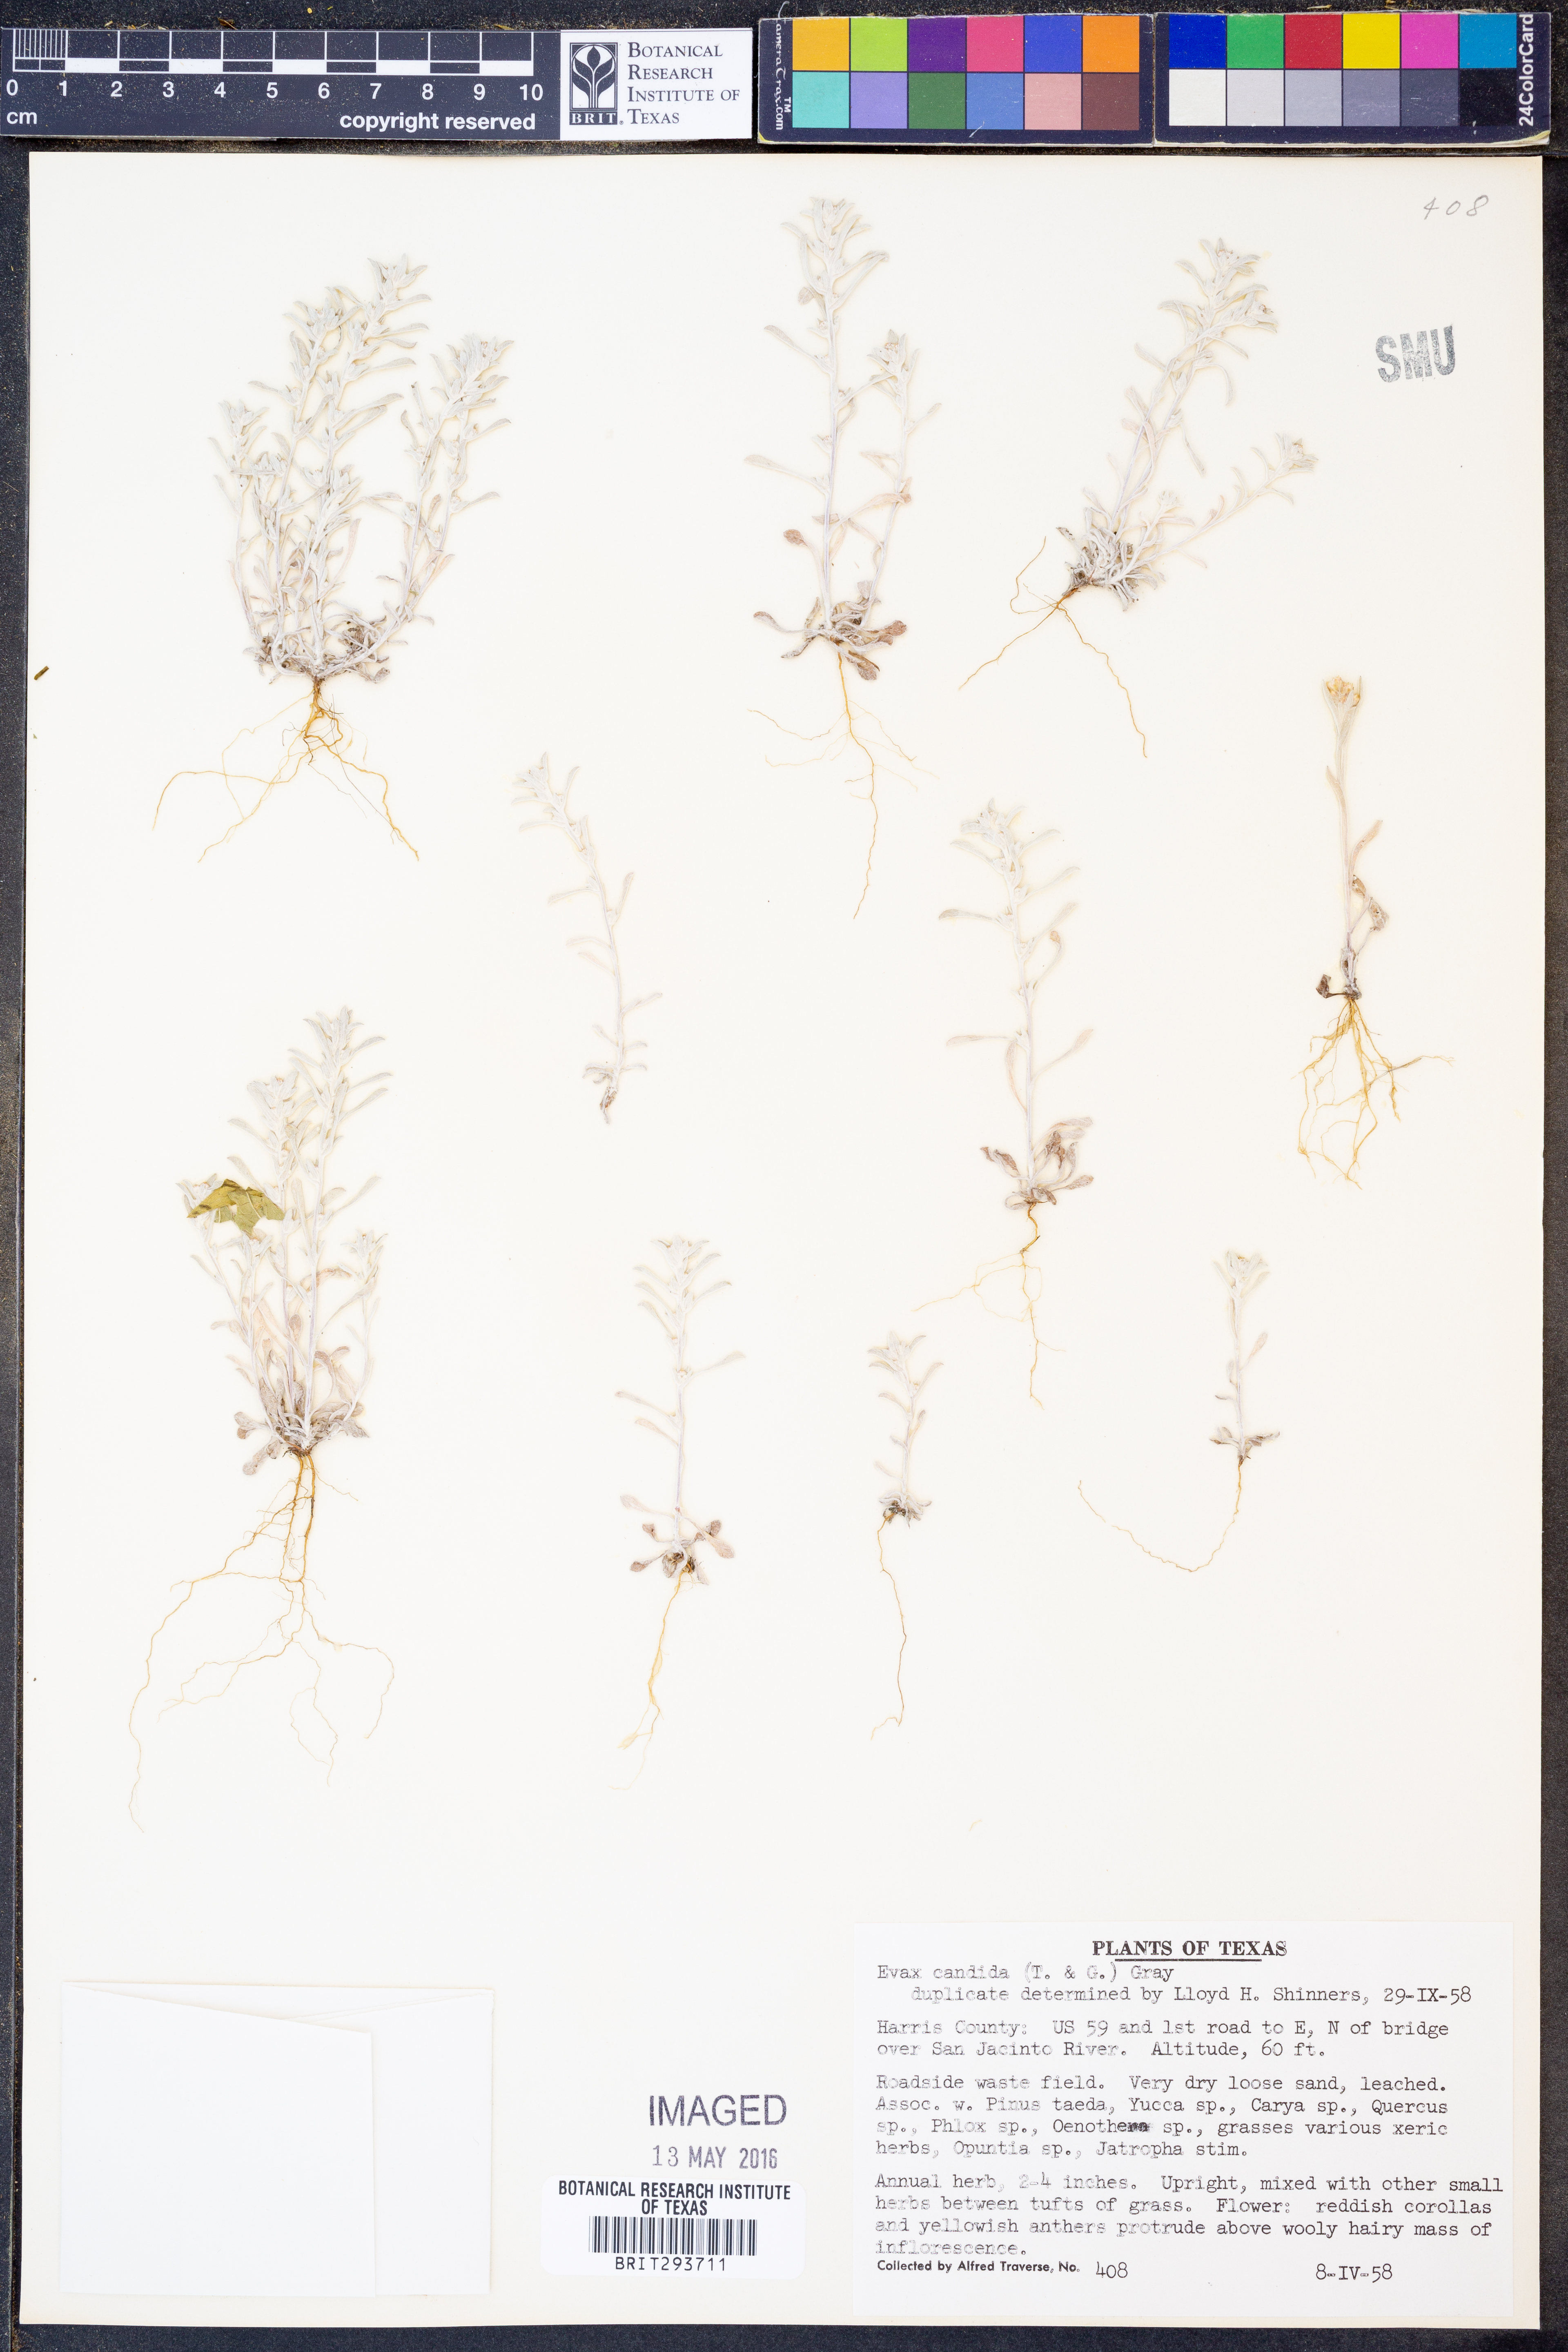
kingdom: Plantae
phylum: Tracheophyta
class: Magnoliopsida
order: Asterales
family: Asteraceae
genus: Diaperia
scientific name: Diaperia candida
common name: Silver rabbit-tobacco
